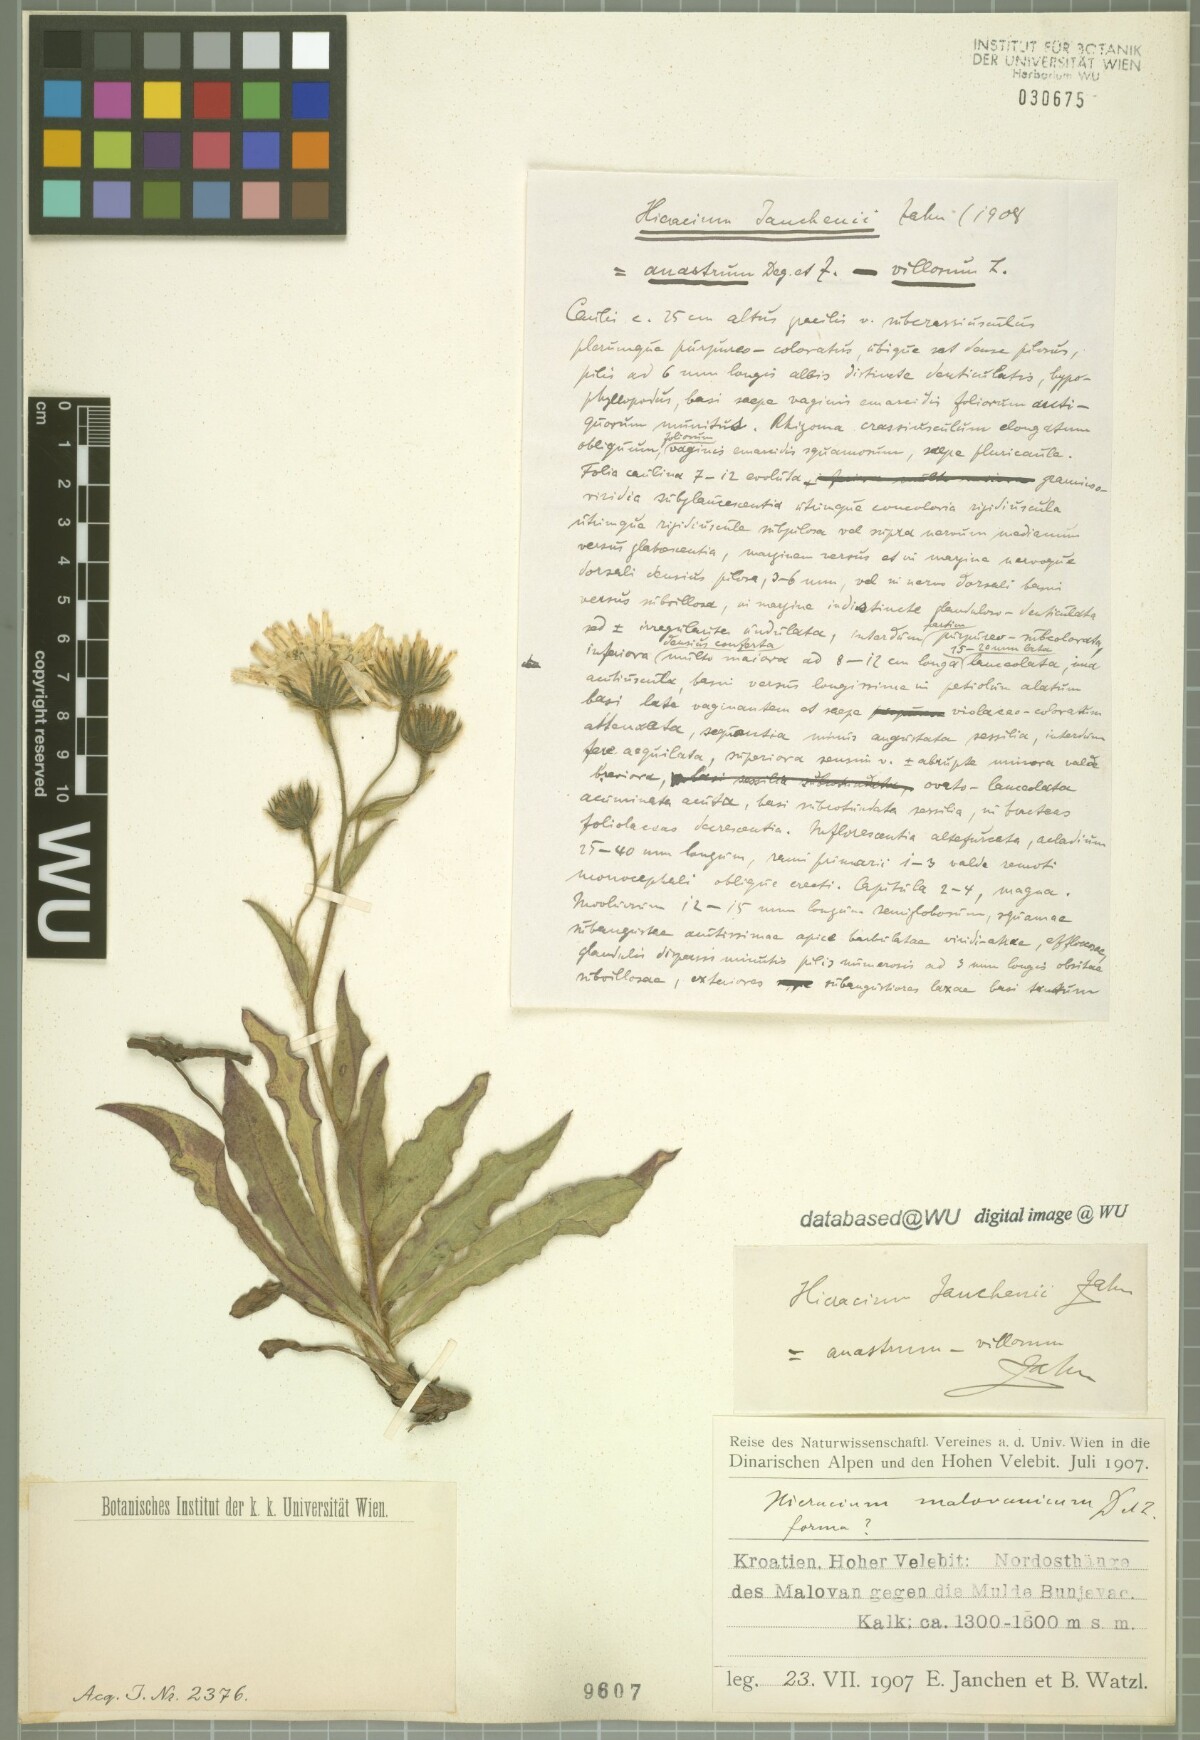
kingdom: Plantae
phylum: Tracheophyta
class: Magnoliopsida
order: Asterales
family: Asteraceae
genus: Hieracium
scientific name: Hieracium guentheri-beckii
